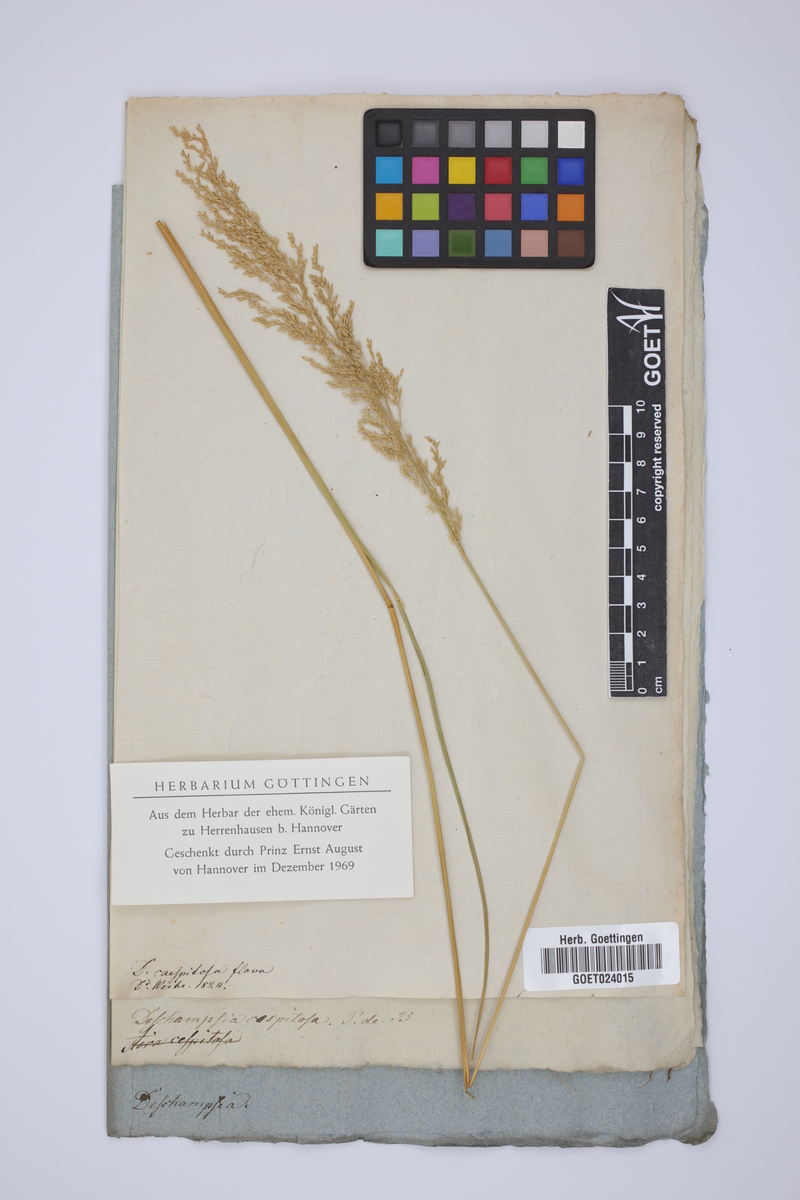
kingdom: Plantae
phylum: Tracheophyta
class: Liliopsida
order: Poales
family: Poaceae
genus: Deschampsia
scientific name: Deschampsia cespitosa
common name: Tufted hair-grass
